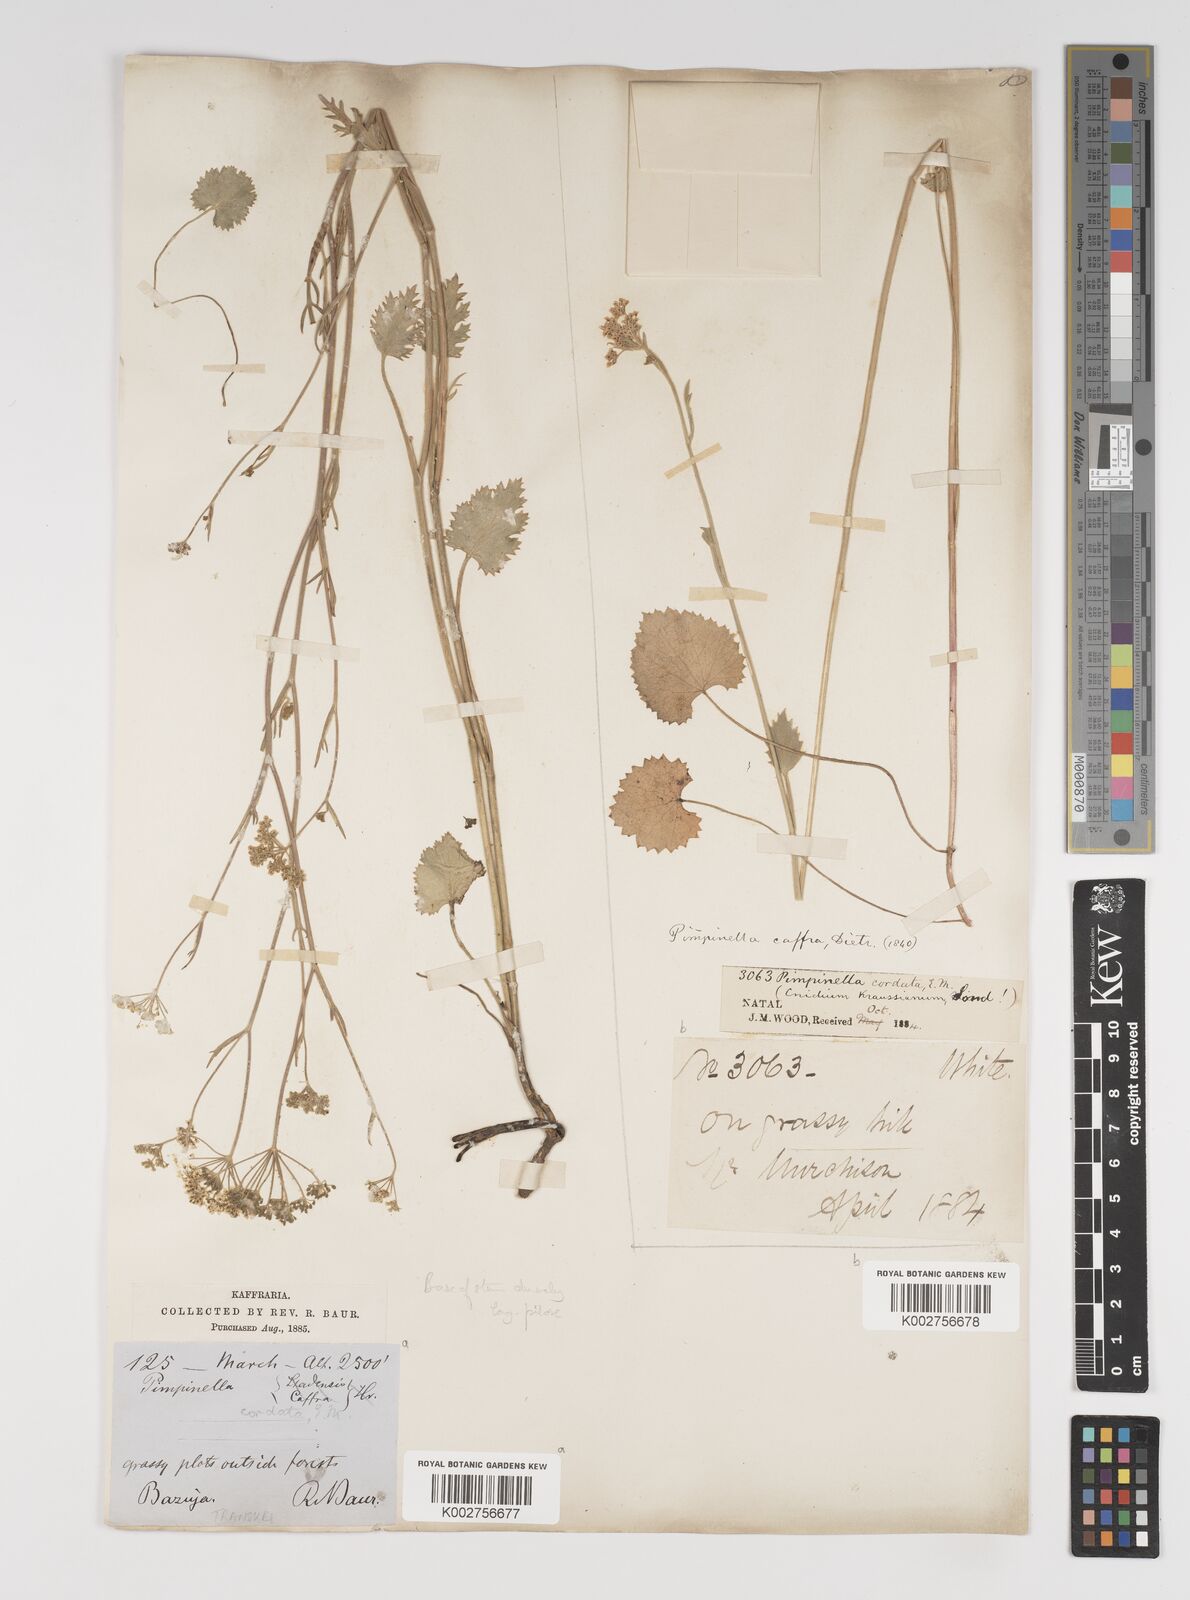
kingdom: Plantae
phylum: Tracheophyta
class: Magnoliopsida
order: Apiales
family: Apiaceae
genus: Pimpinella
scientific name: Pimpinella
